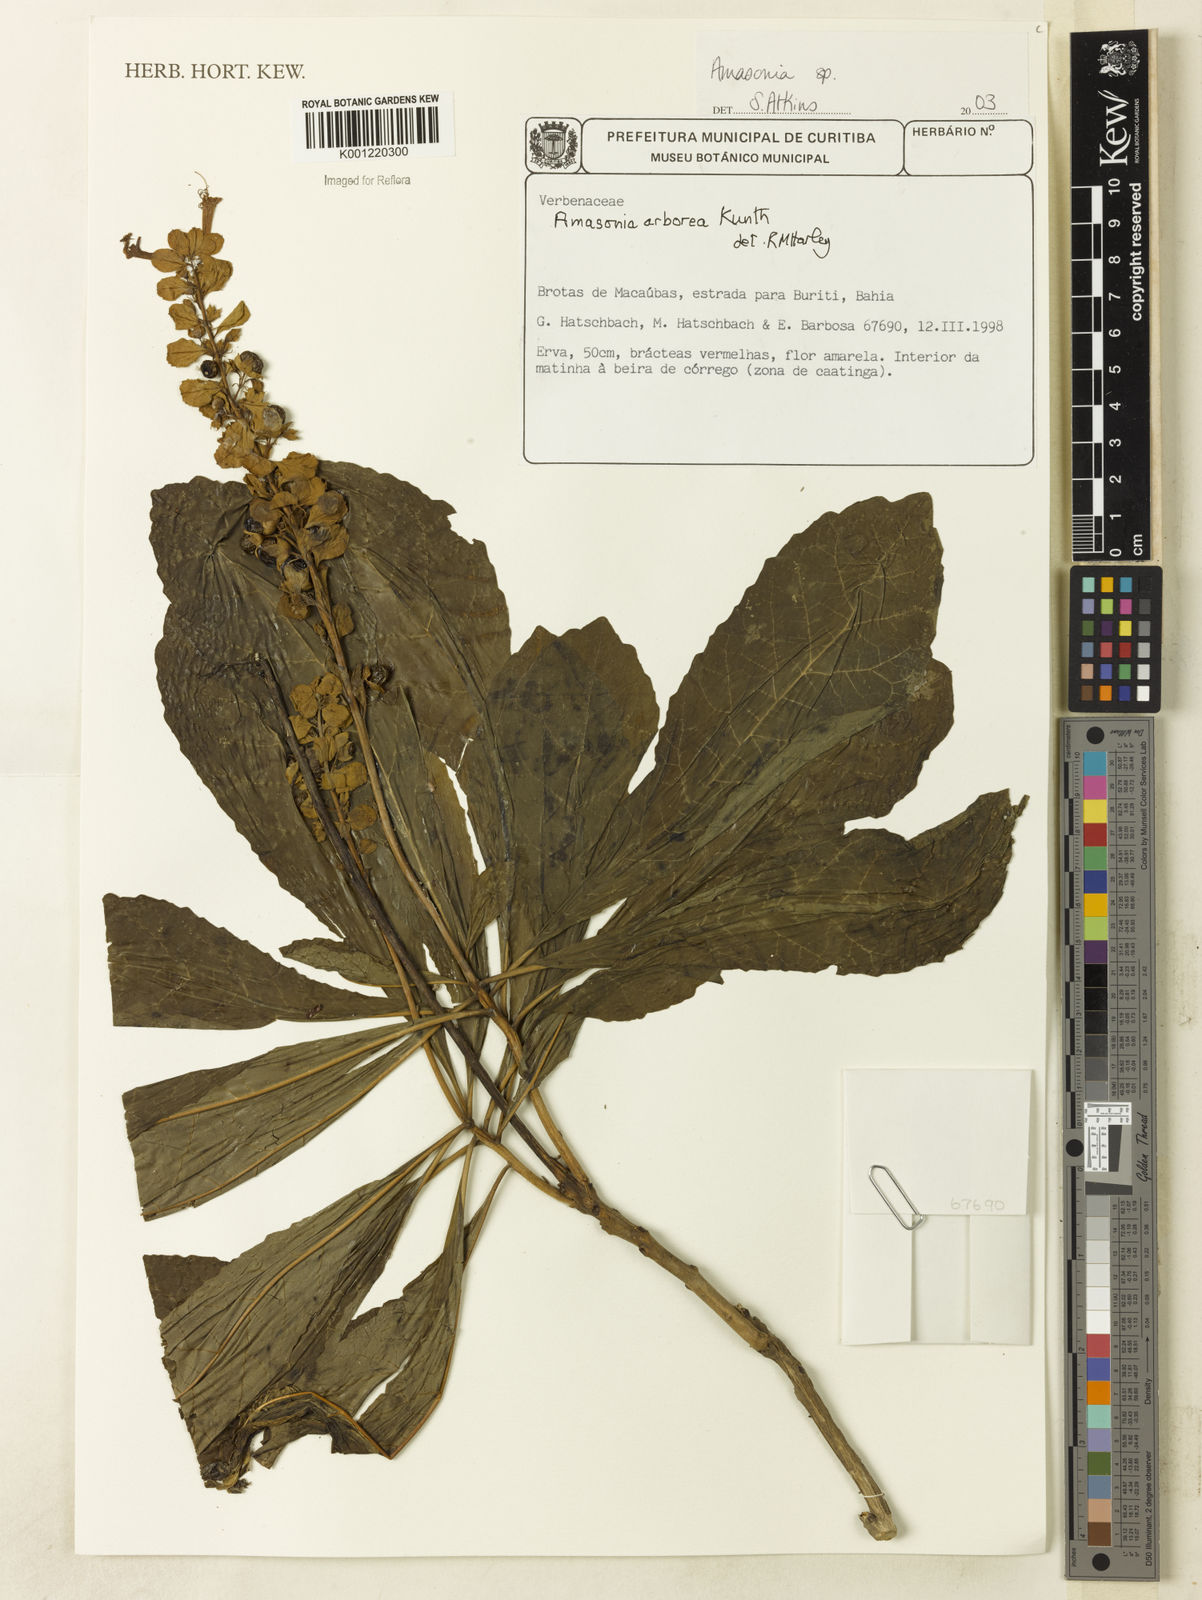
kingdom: Plantae
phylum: Tracheophyta
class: Magnoliopsida
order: Lamiales
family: Lamiaceae
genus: Amasonia
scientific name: Amasonia arborea
